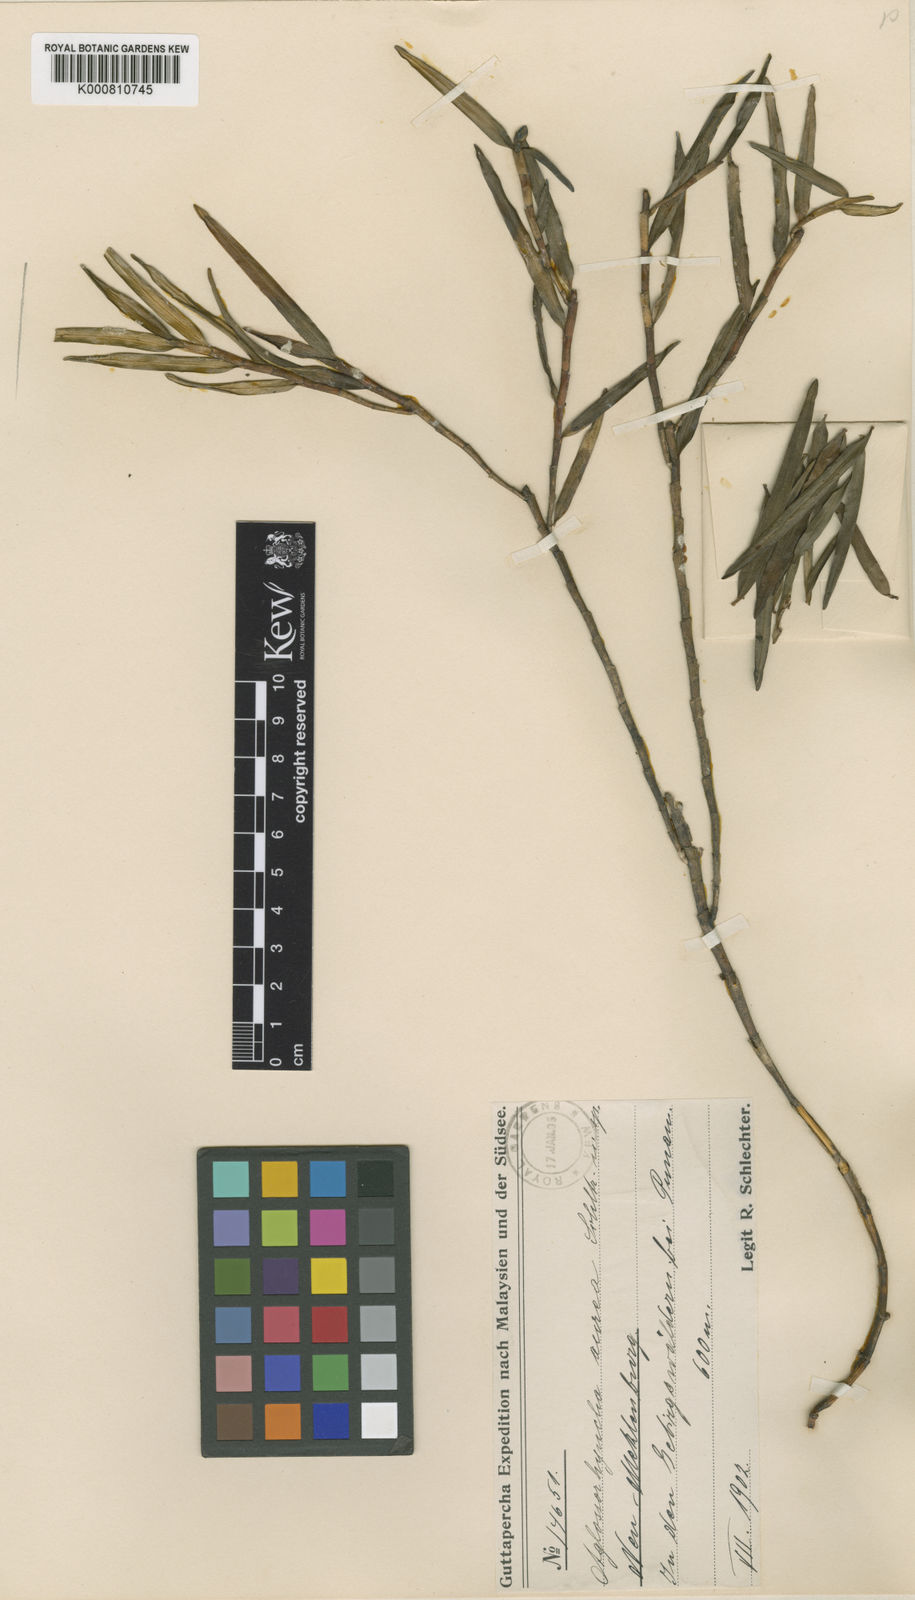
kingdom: Plantae
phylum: Tracheophyta
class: Liliopsida
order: Asparagales
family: Orchidaceae
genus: Aglossorrhyncha
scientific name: Aglossorrhyncha aurea
